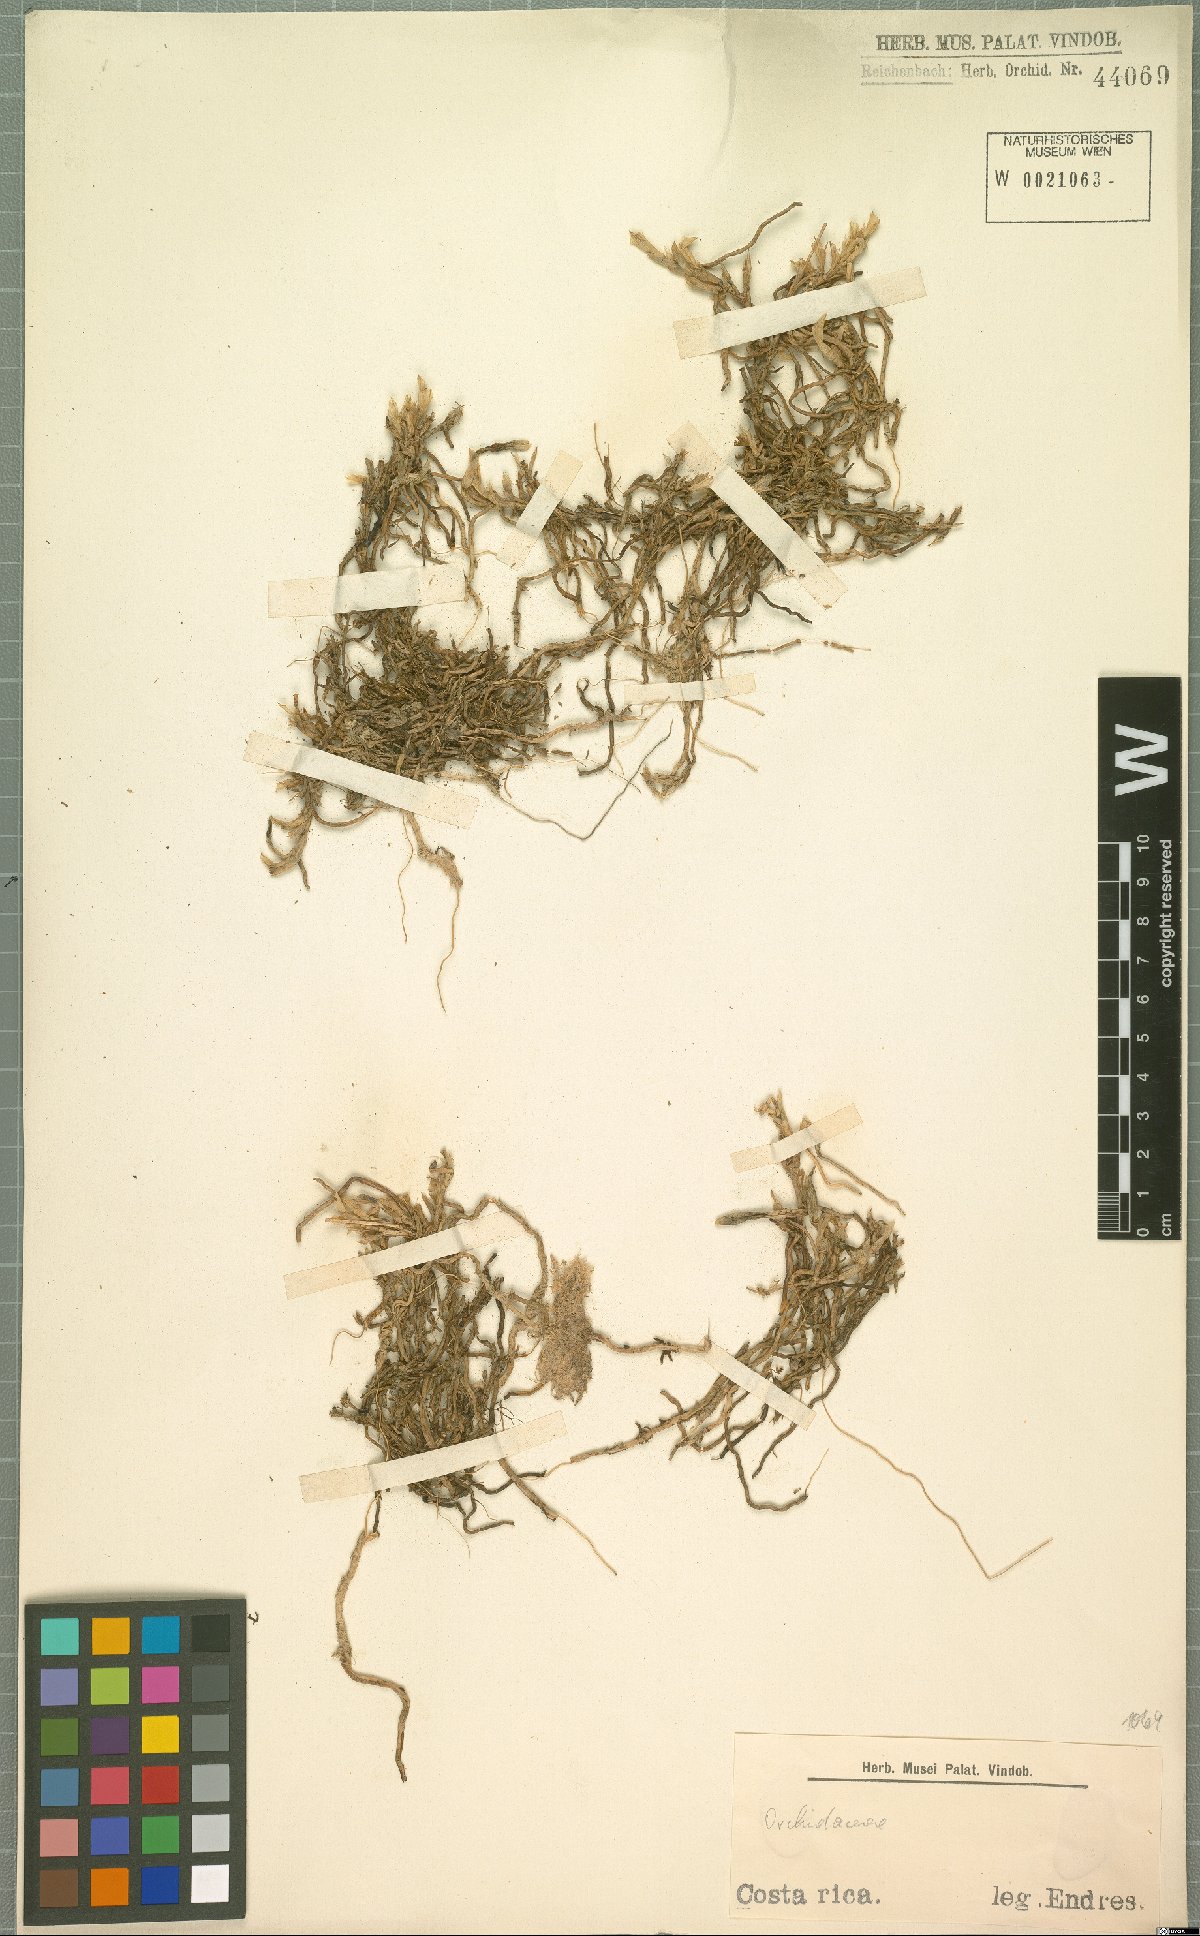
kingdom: Plantae
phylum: Tracheophyta
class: Liliopsida
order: Asparagales
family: Orchidaceae
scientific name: Orchidaceae
